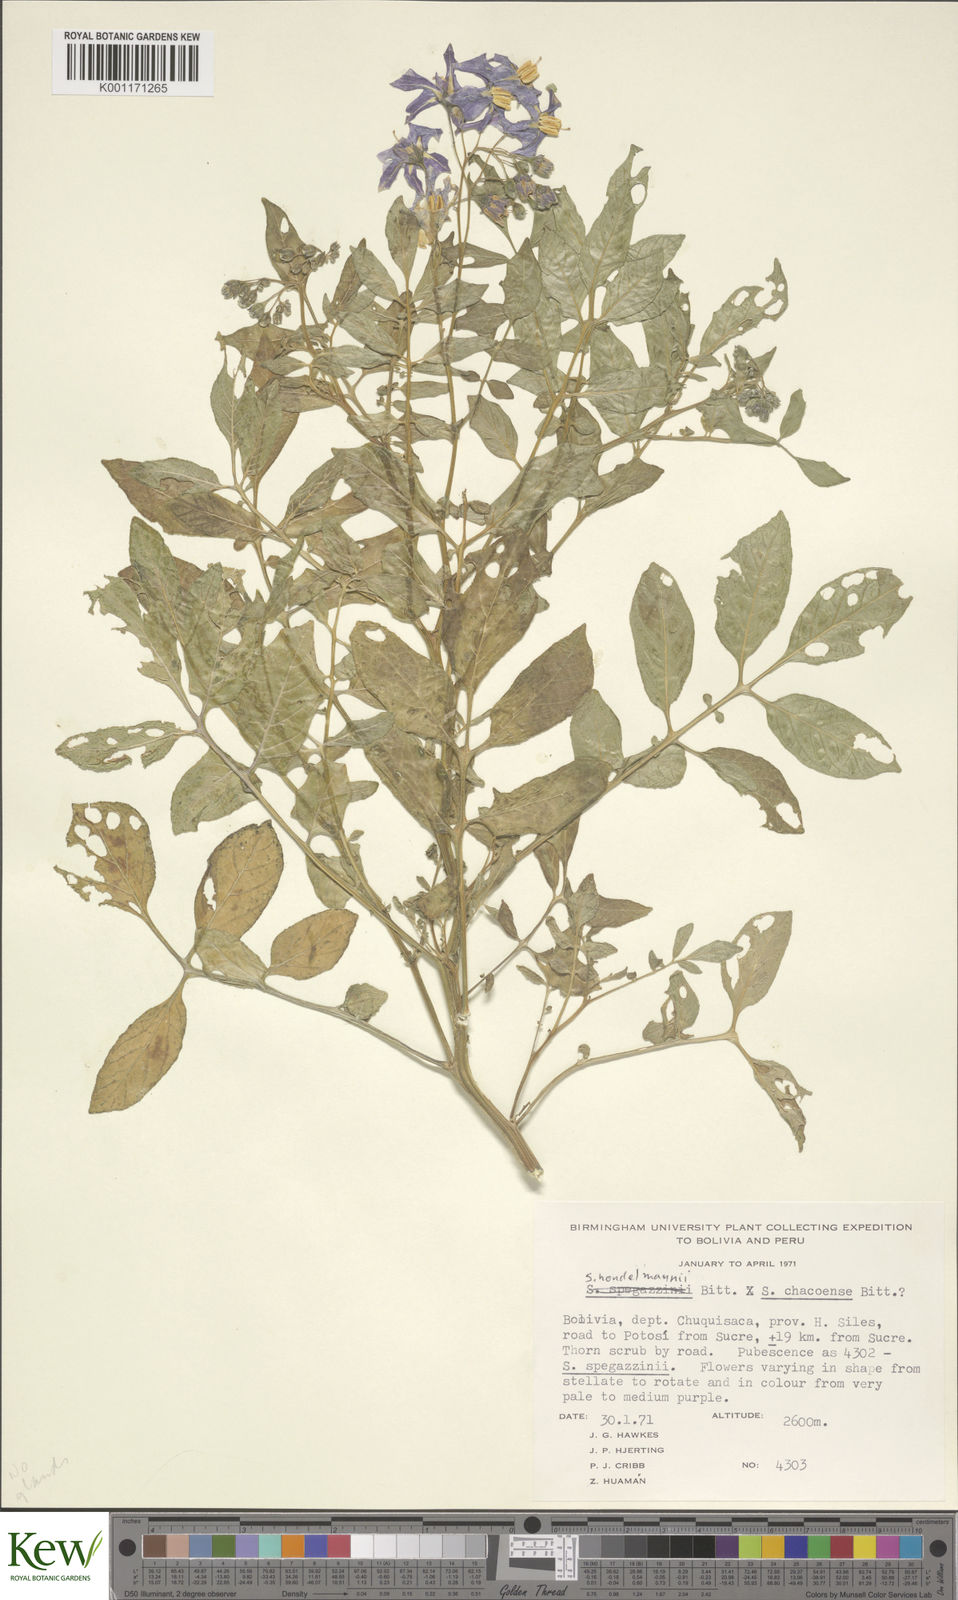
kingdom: Plantae
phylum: Tracheophyta
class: Magnoliopsida
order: Solanales
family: Solanaceae
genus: Solanum
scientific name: Solanum brevicaule
